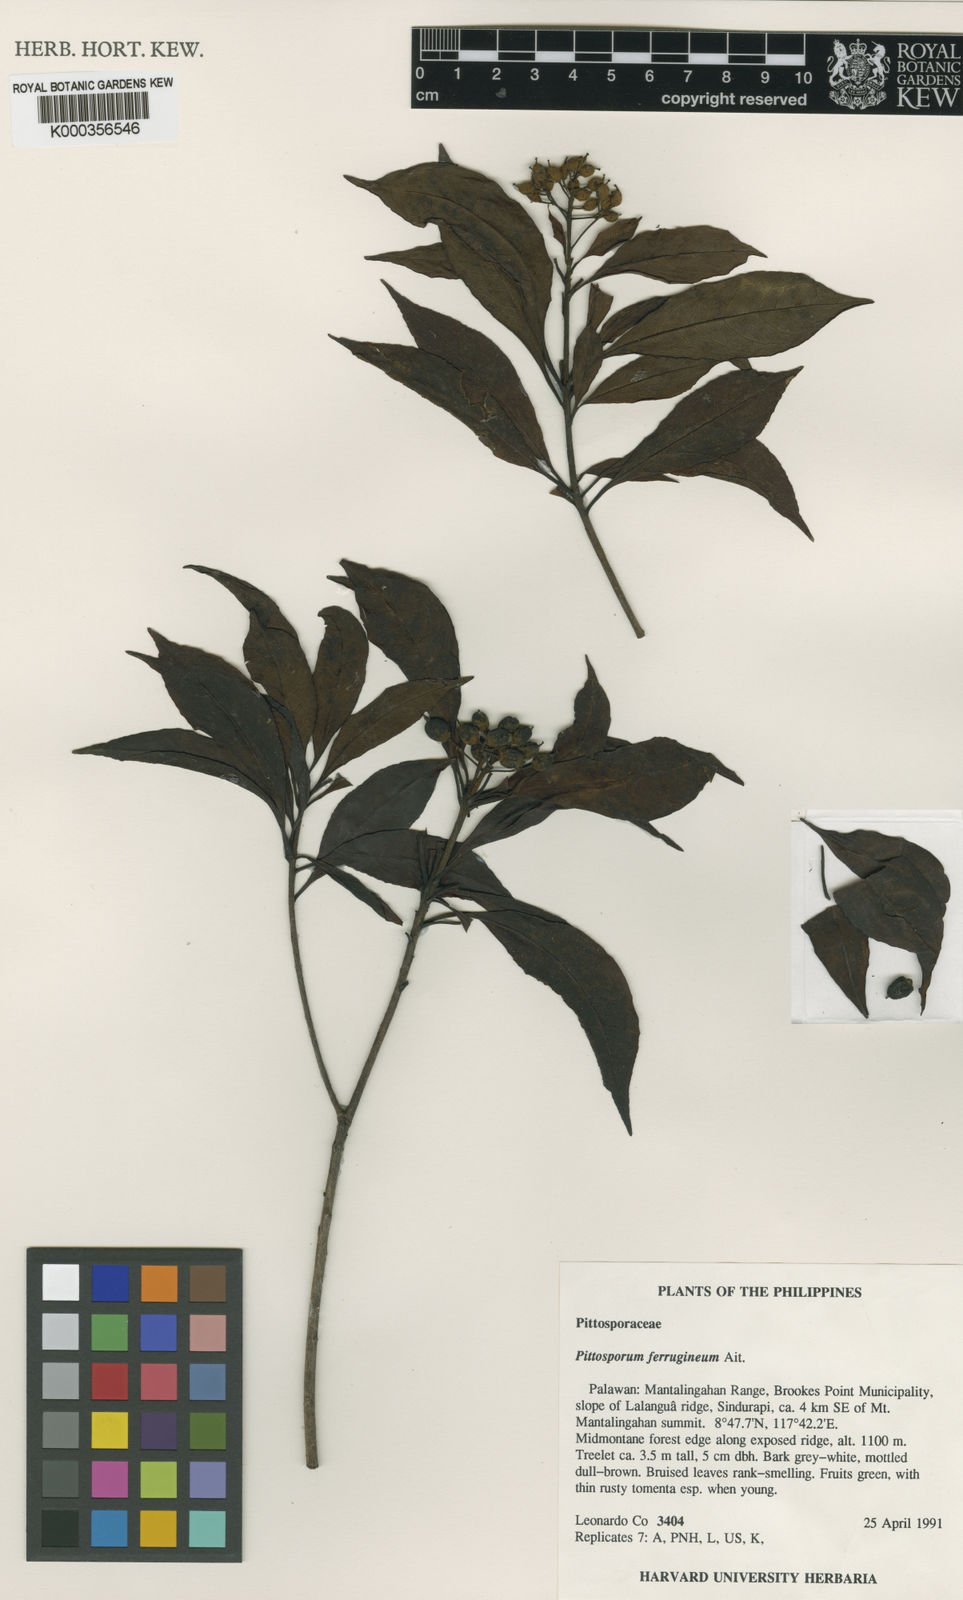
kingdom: Plantae
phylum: Tracheophyta
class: Magnoliopsida
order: Apiales
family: Pittosporaceae
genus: Pittosporum
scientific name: Pittosporum ferrugineum
